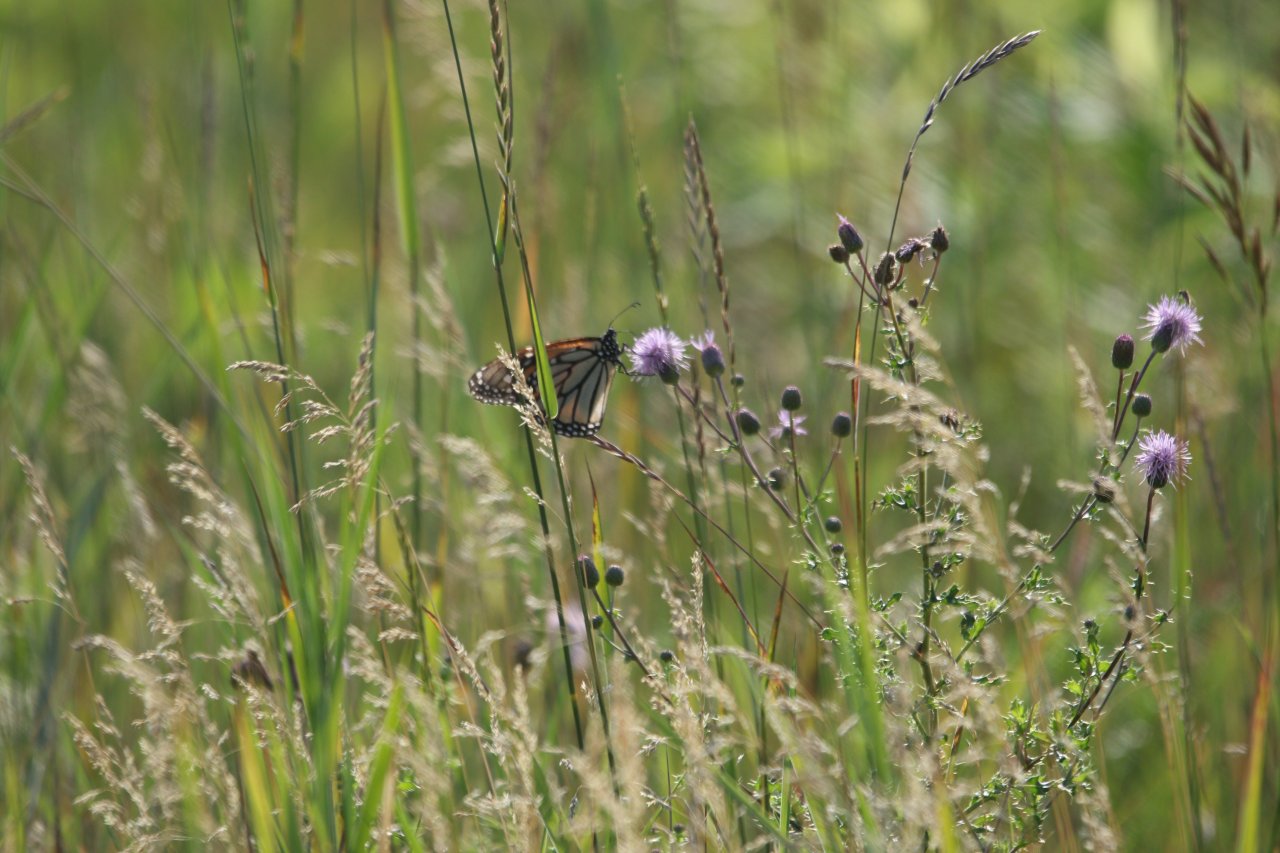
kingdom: Animalia
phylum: Arthropoda
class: Insecta
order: Lepidoptera
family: Nymphalidae
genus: Danaus
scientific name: Danaus plexippus
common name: Monarch
